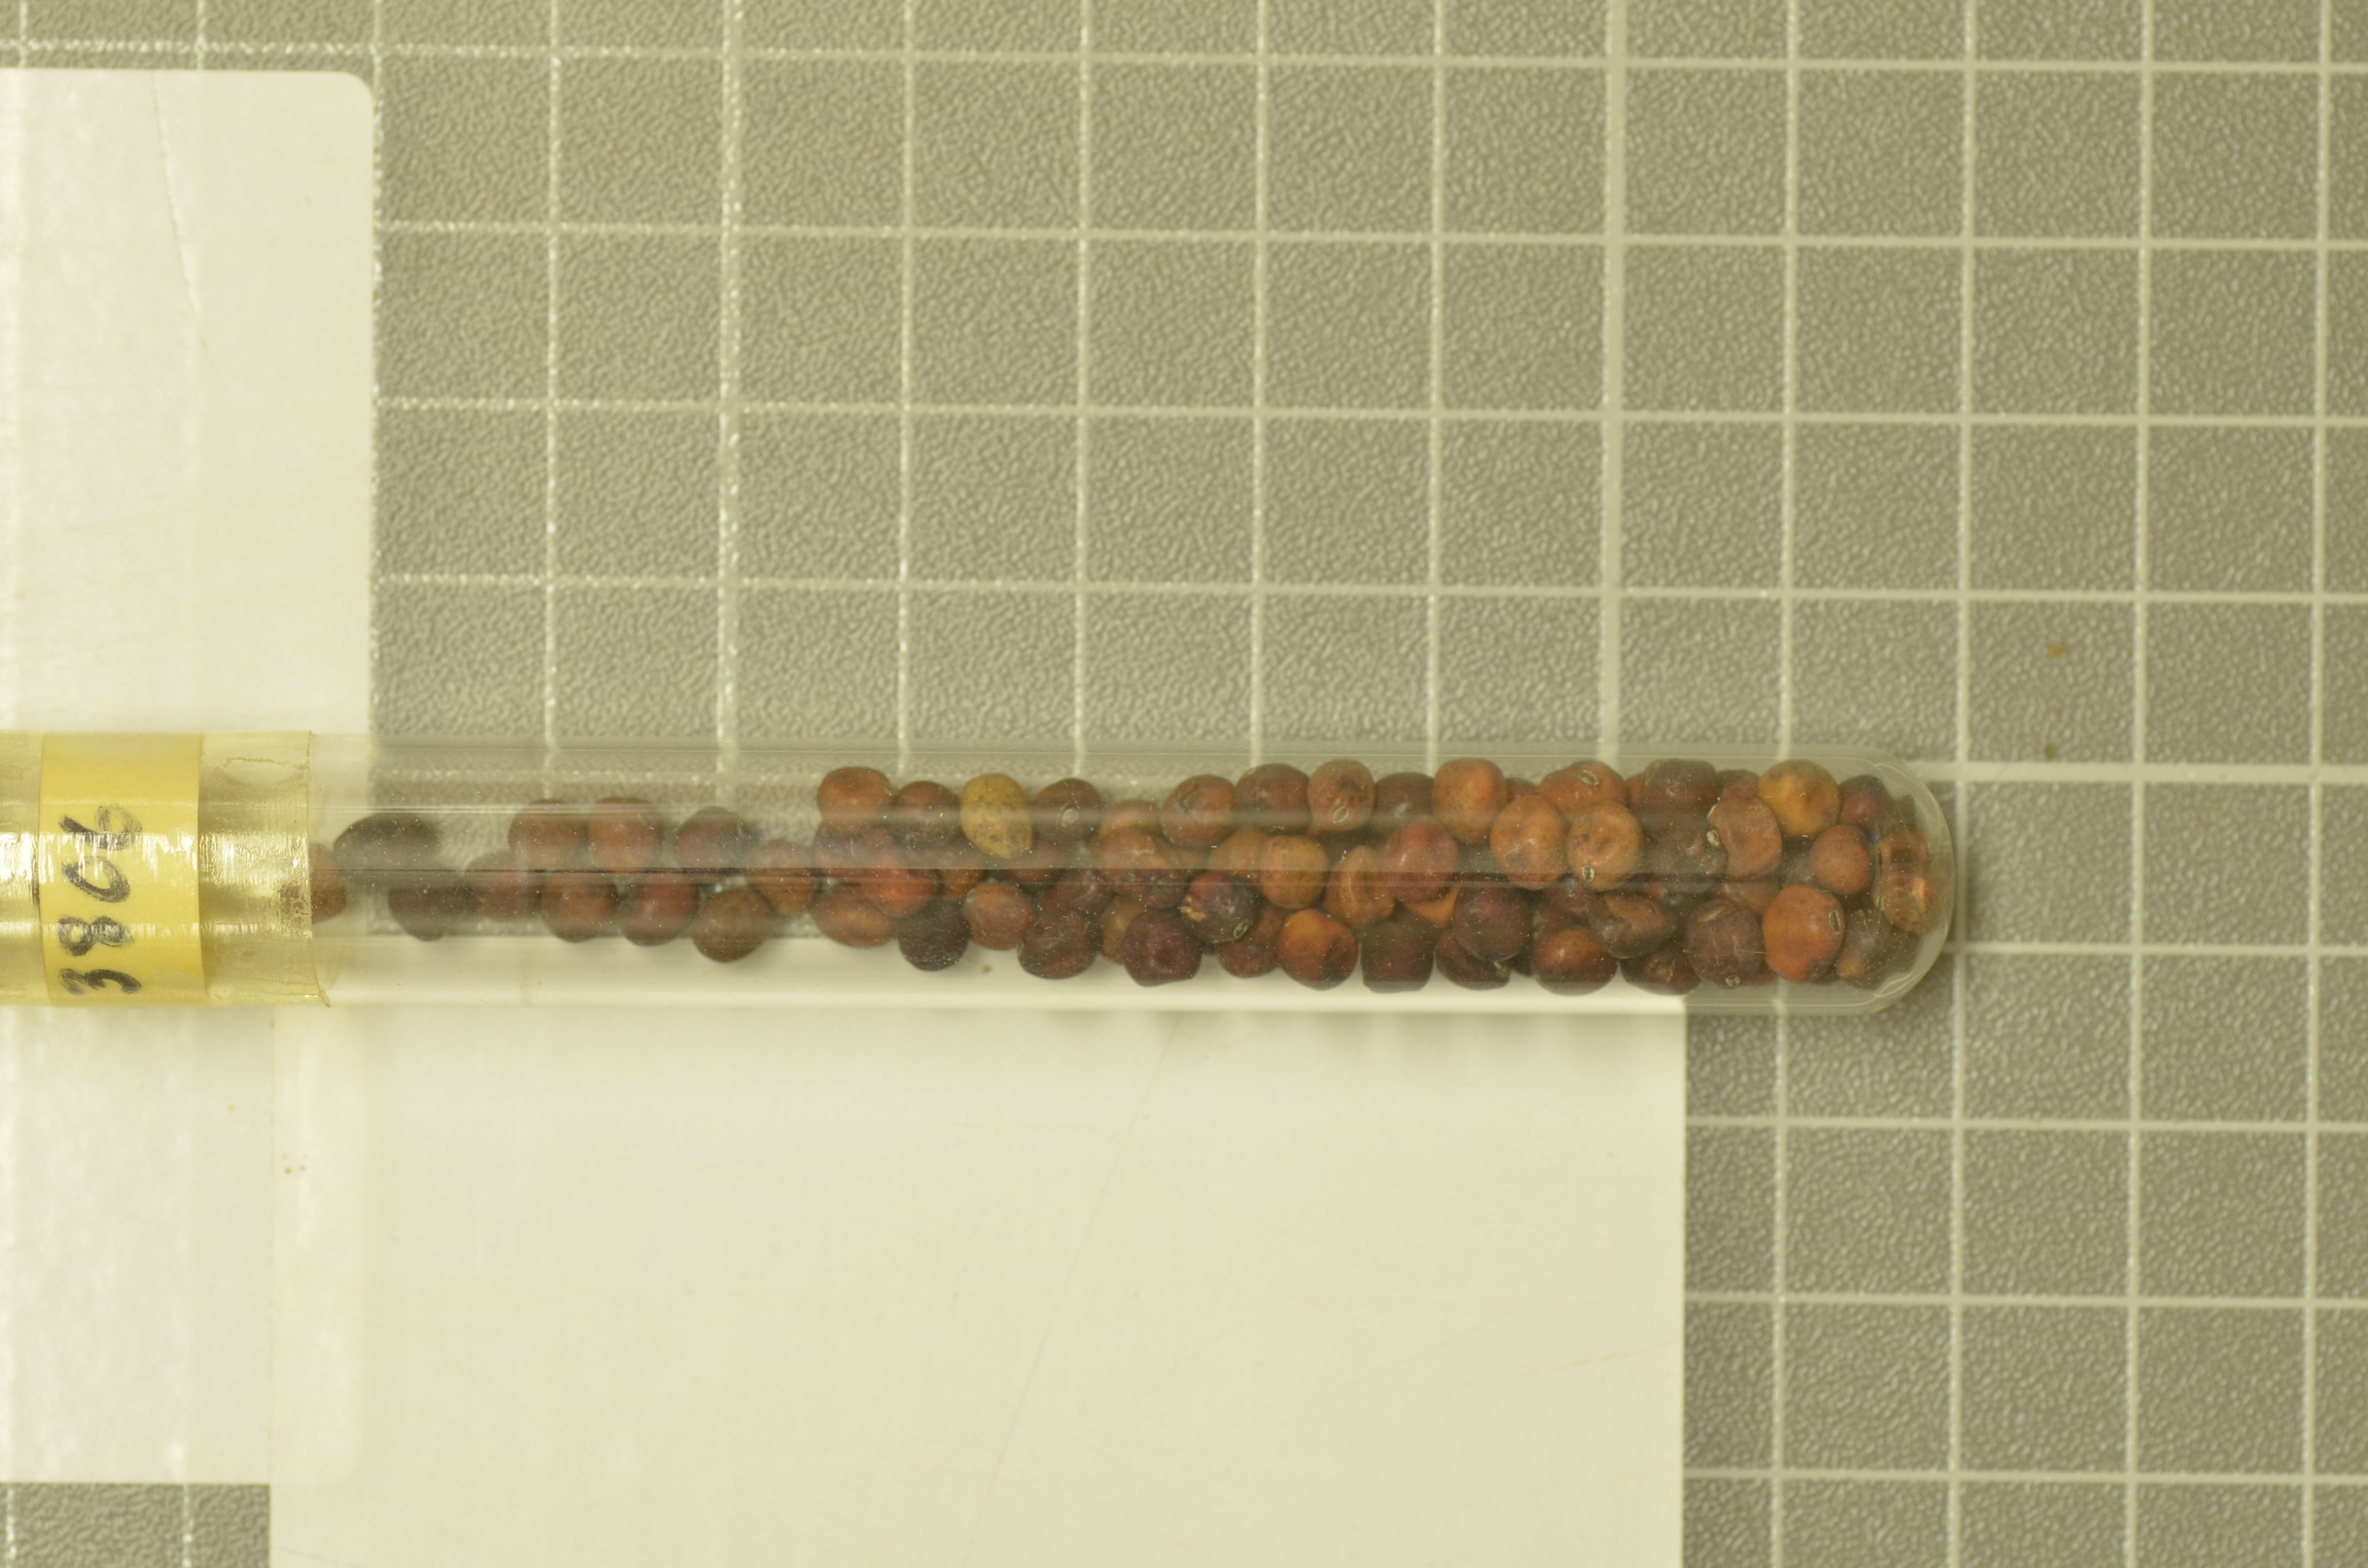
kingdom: Plantae
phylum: Tracheophyta
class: Magnoliopsida
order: Fabales
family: Fabaceae
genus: Lathyrus
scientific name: Lathyrus oleraceus
